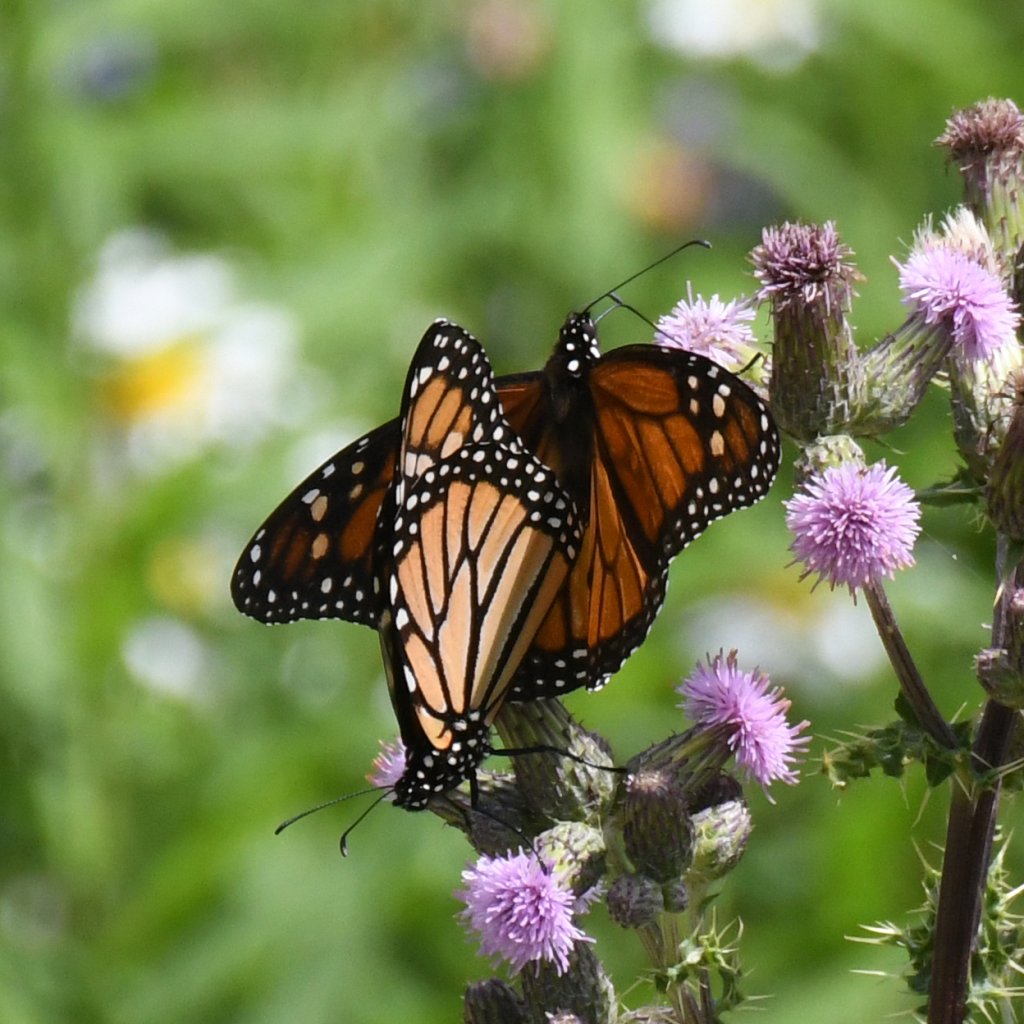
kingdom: Animalia
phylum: Arthropoda
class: Insecta
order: Lepidoptera
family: Nymphalidae
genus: Danaus
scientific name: Danaus plexippus
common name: Monarch
